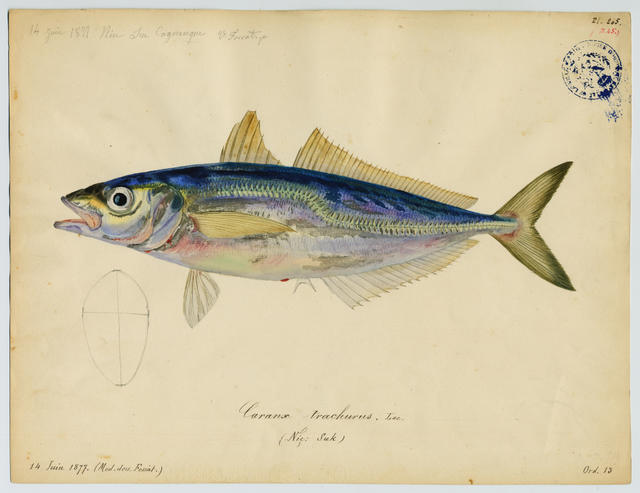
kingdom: Animalia
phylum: Chordata
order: Perciformes
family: Carangidae
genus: Trachurus
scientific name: Trachurus mediterraneus
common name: Mediterranean scad
